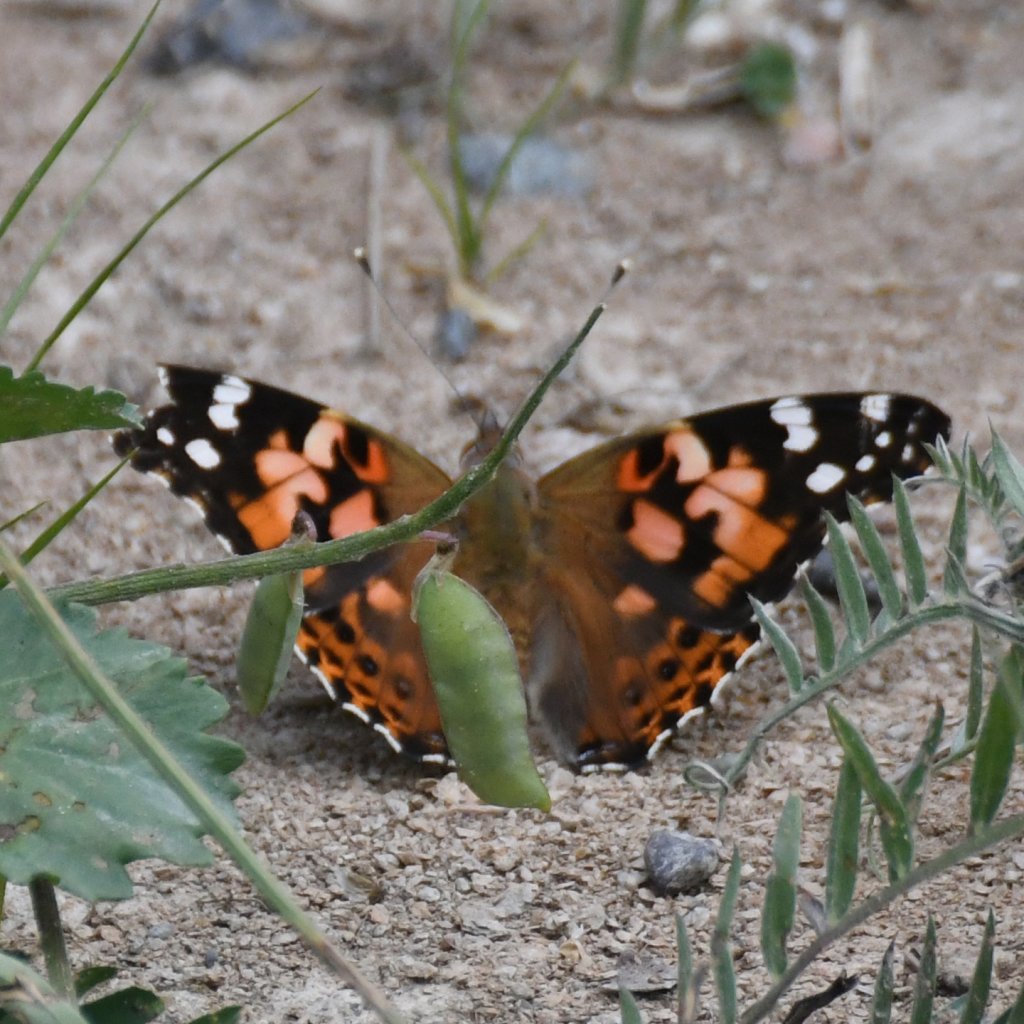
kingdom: Animalia
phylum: Arthropoda
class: Insecta
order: Lepidoptera
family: Nymphalidae
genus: Vanessa
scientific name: Vanessa cardui
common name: Painted Lady
